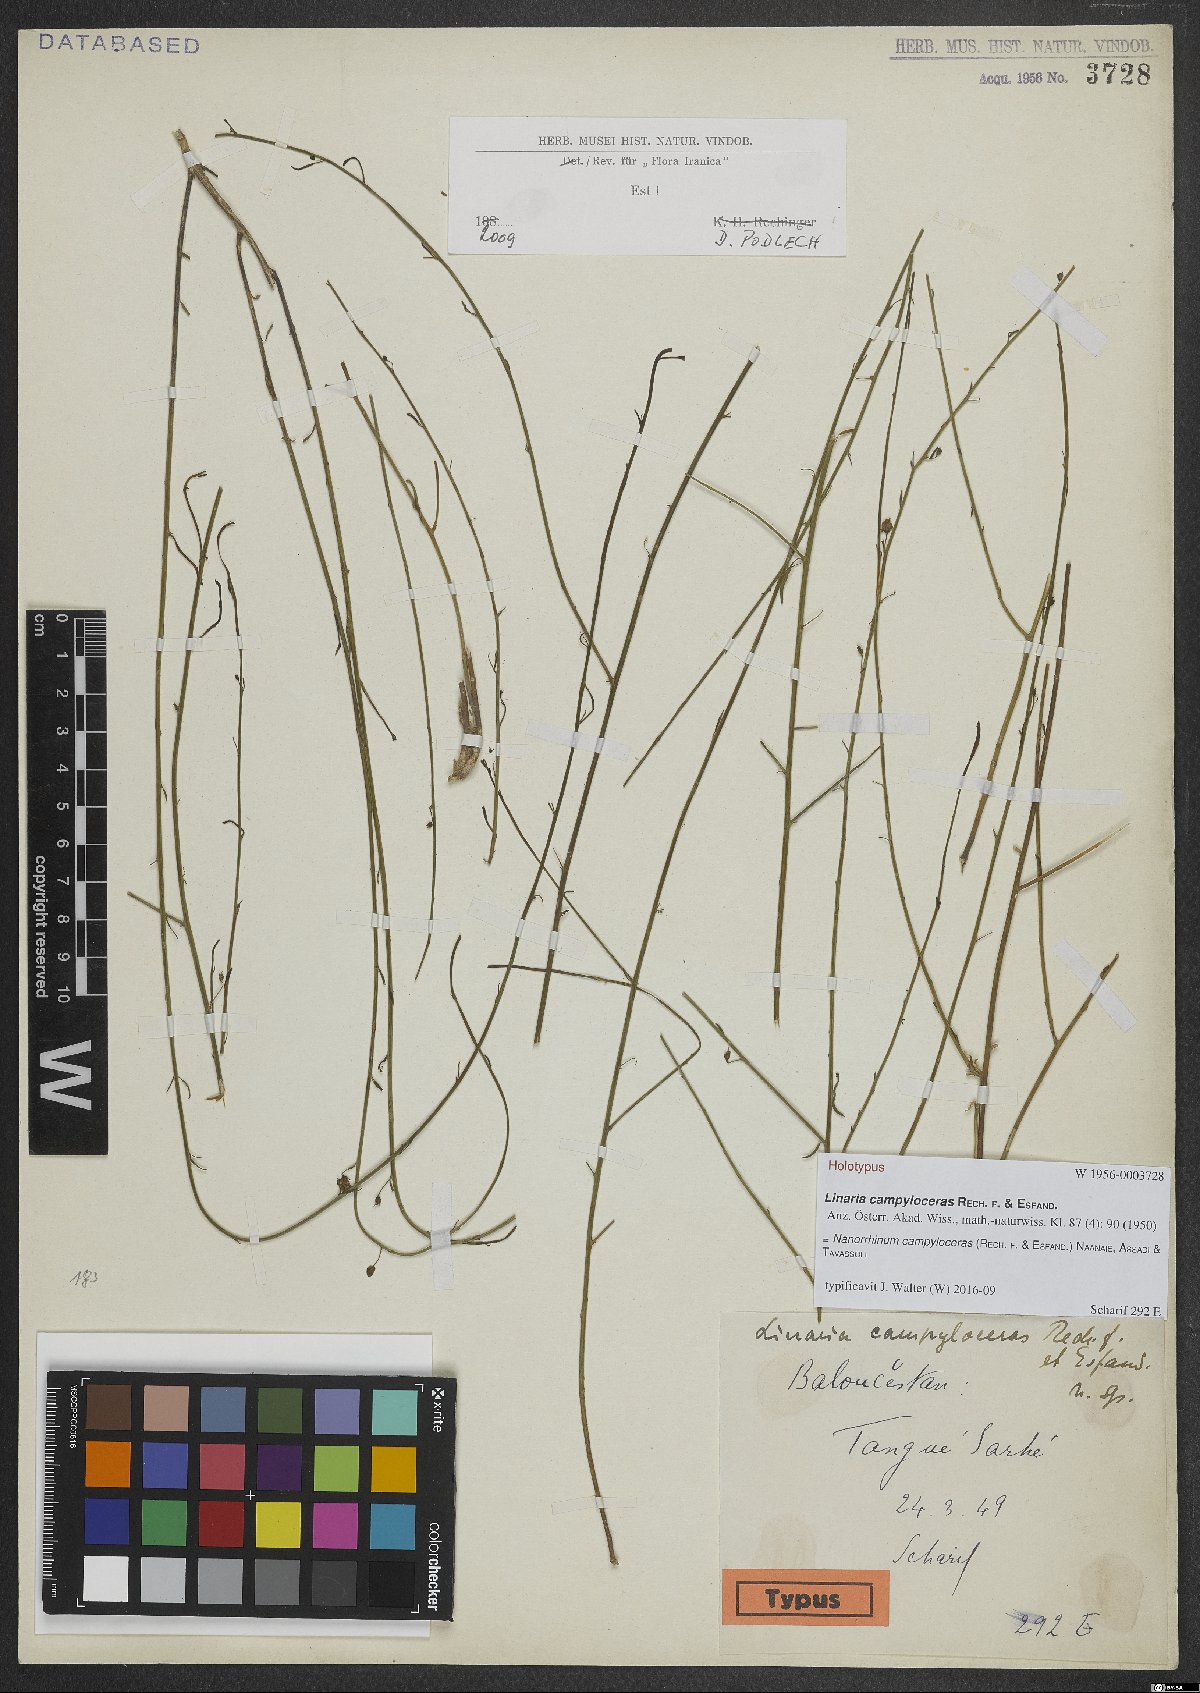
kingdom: Plantae
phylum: Tracheophyta
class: Magnoliopsida
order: Lamiales
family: Plantaginaceae
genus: Nanorrhinum
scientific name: Nanorrhinum campyloceras
